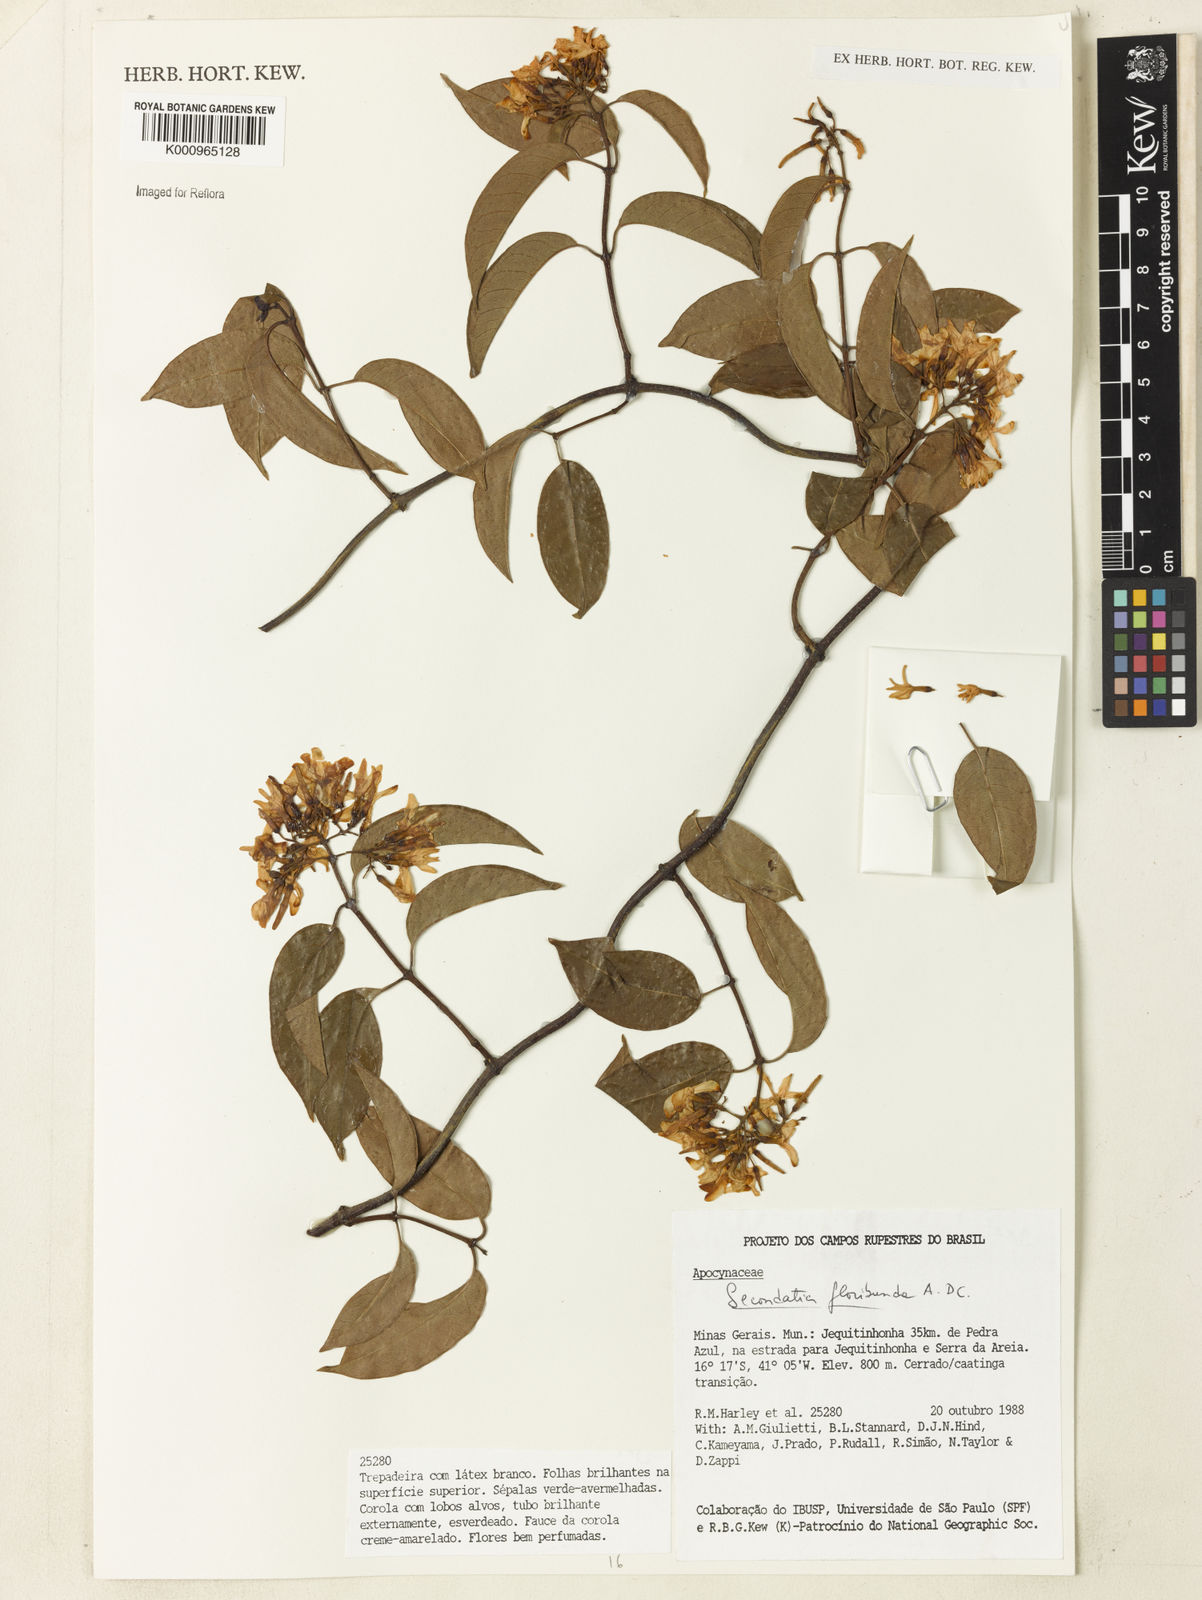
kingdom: Plantae
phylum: Tracheophyta
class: Magnoliopsida
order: Gentianales
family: Apocynaceae
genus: Secondatia
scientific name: Secondatia floribunda
